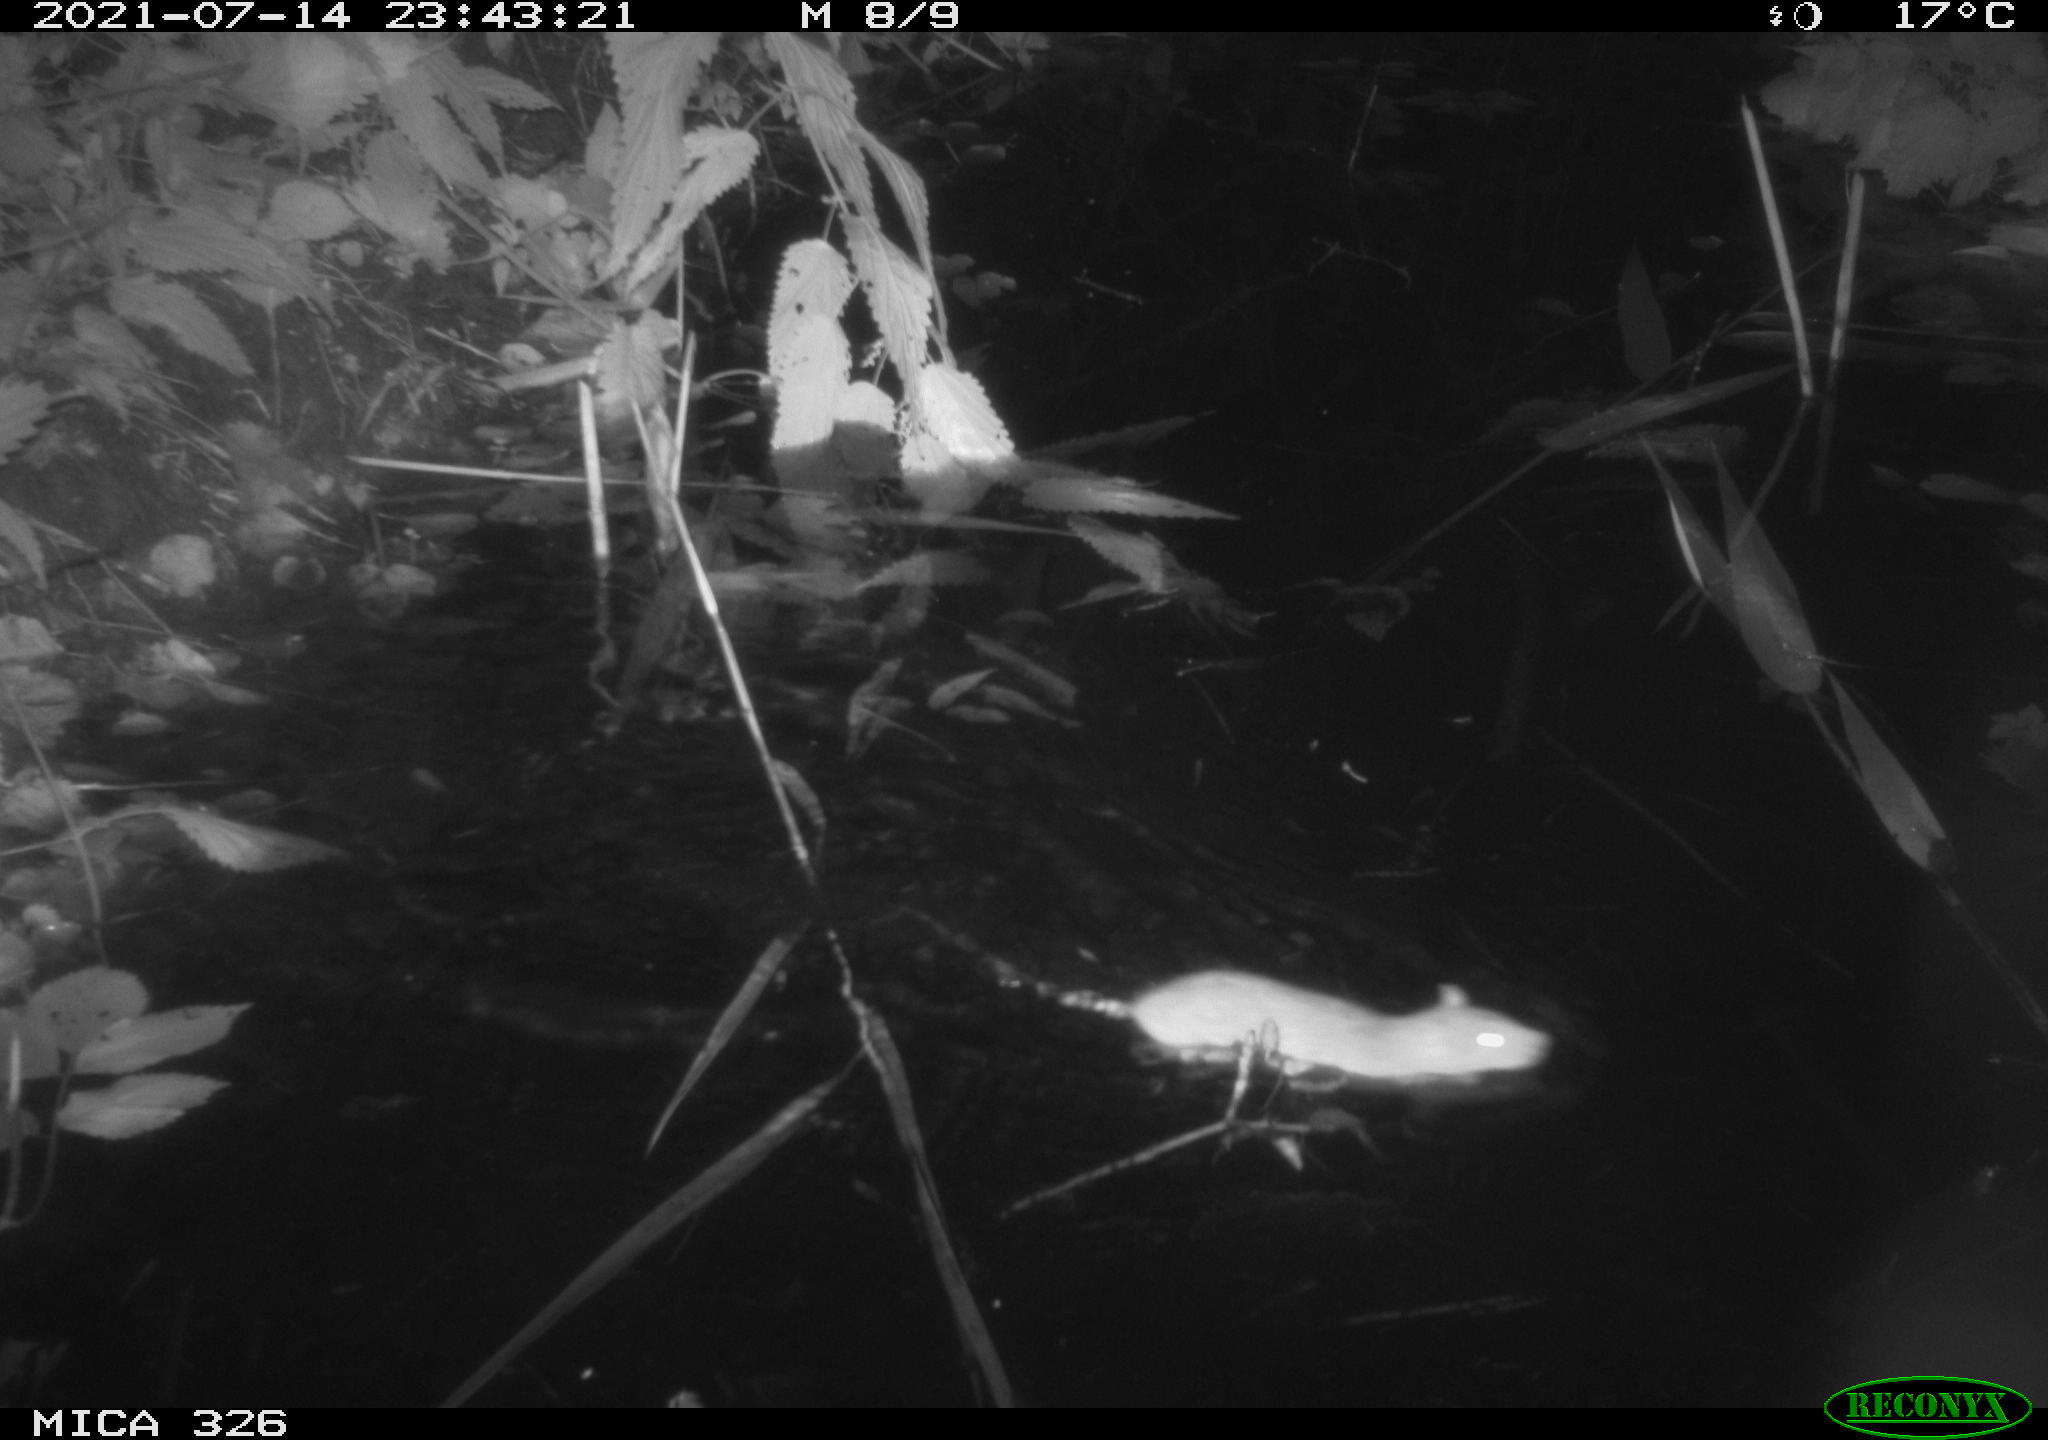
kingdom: Animalia
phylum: Chordata
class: Mammalia
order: Rodentia
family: Muridae
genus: Rattus
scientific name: Rattus norvegicus
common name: Brown rat
